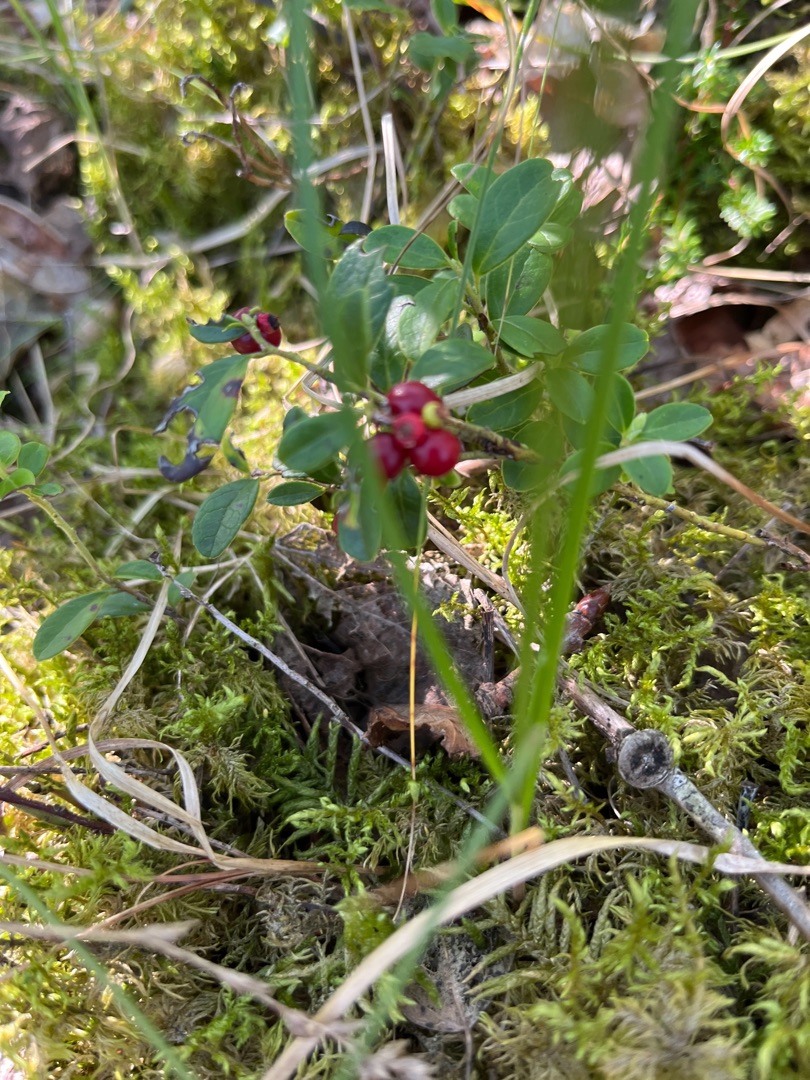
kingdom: Plantae
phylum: Tracheophyta
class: Magnoliopsida
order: Ericales
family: Ericaceae
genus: Vaccinium
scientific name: Vaccinium vitis-idaea
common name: Tyttebær
